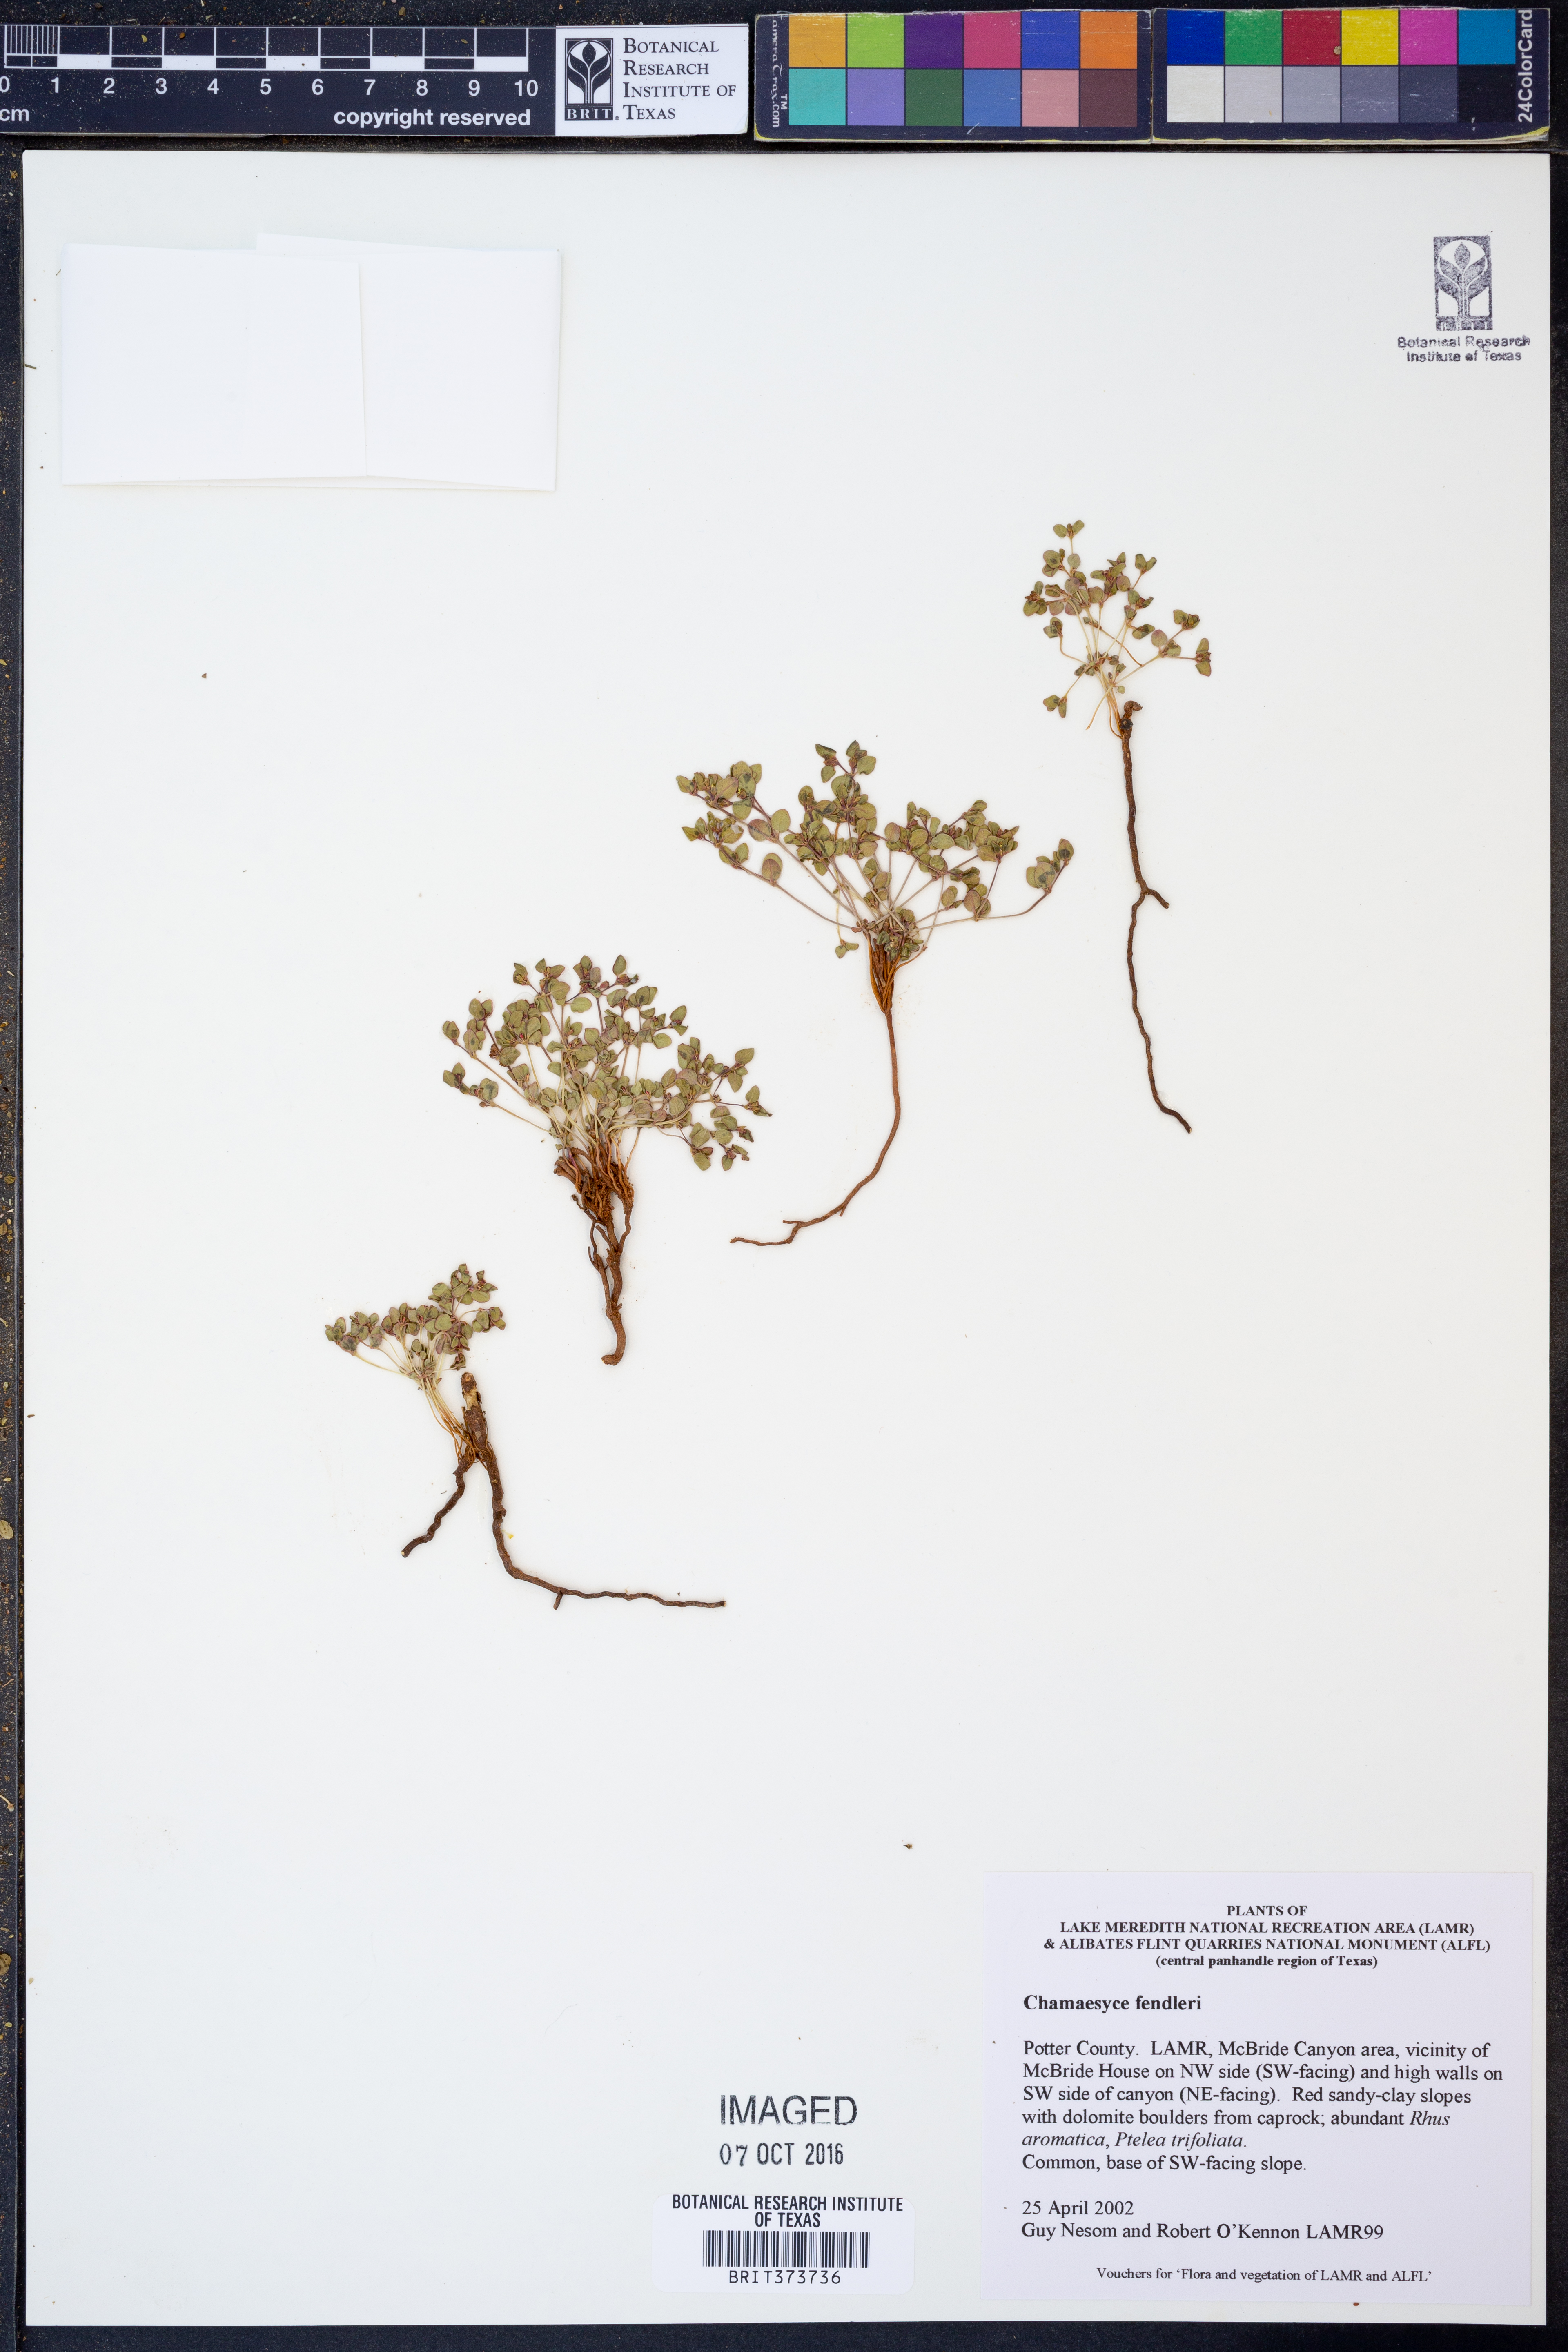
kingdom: Plantae
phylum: Tracheophyta
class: Magnoliopsida
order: Malpighiales
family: Euphorbiaceae
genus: Euphorbia
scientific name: Euphorbia fendleri
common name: Fendler's euphorbia
